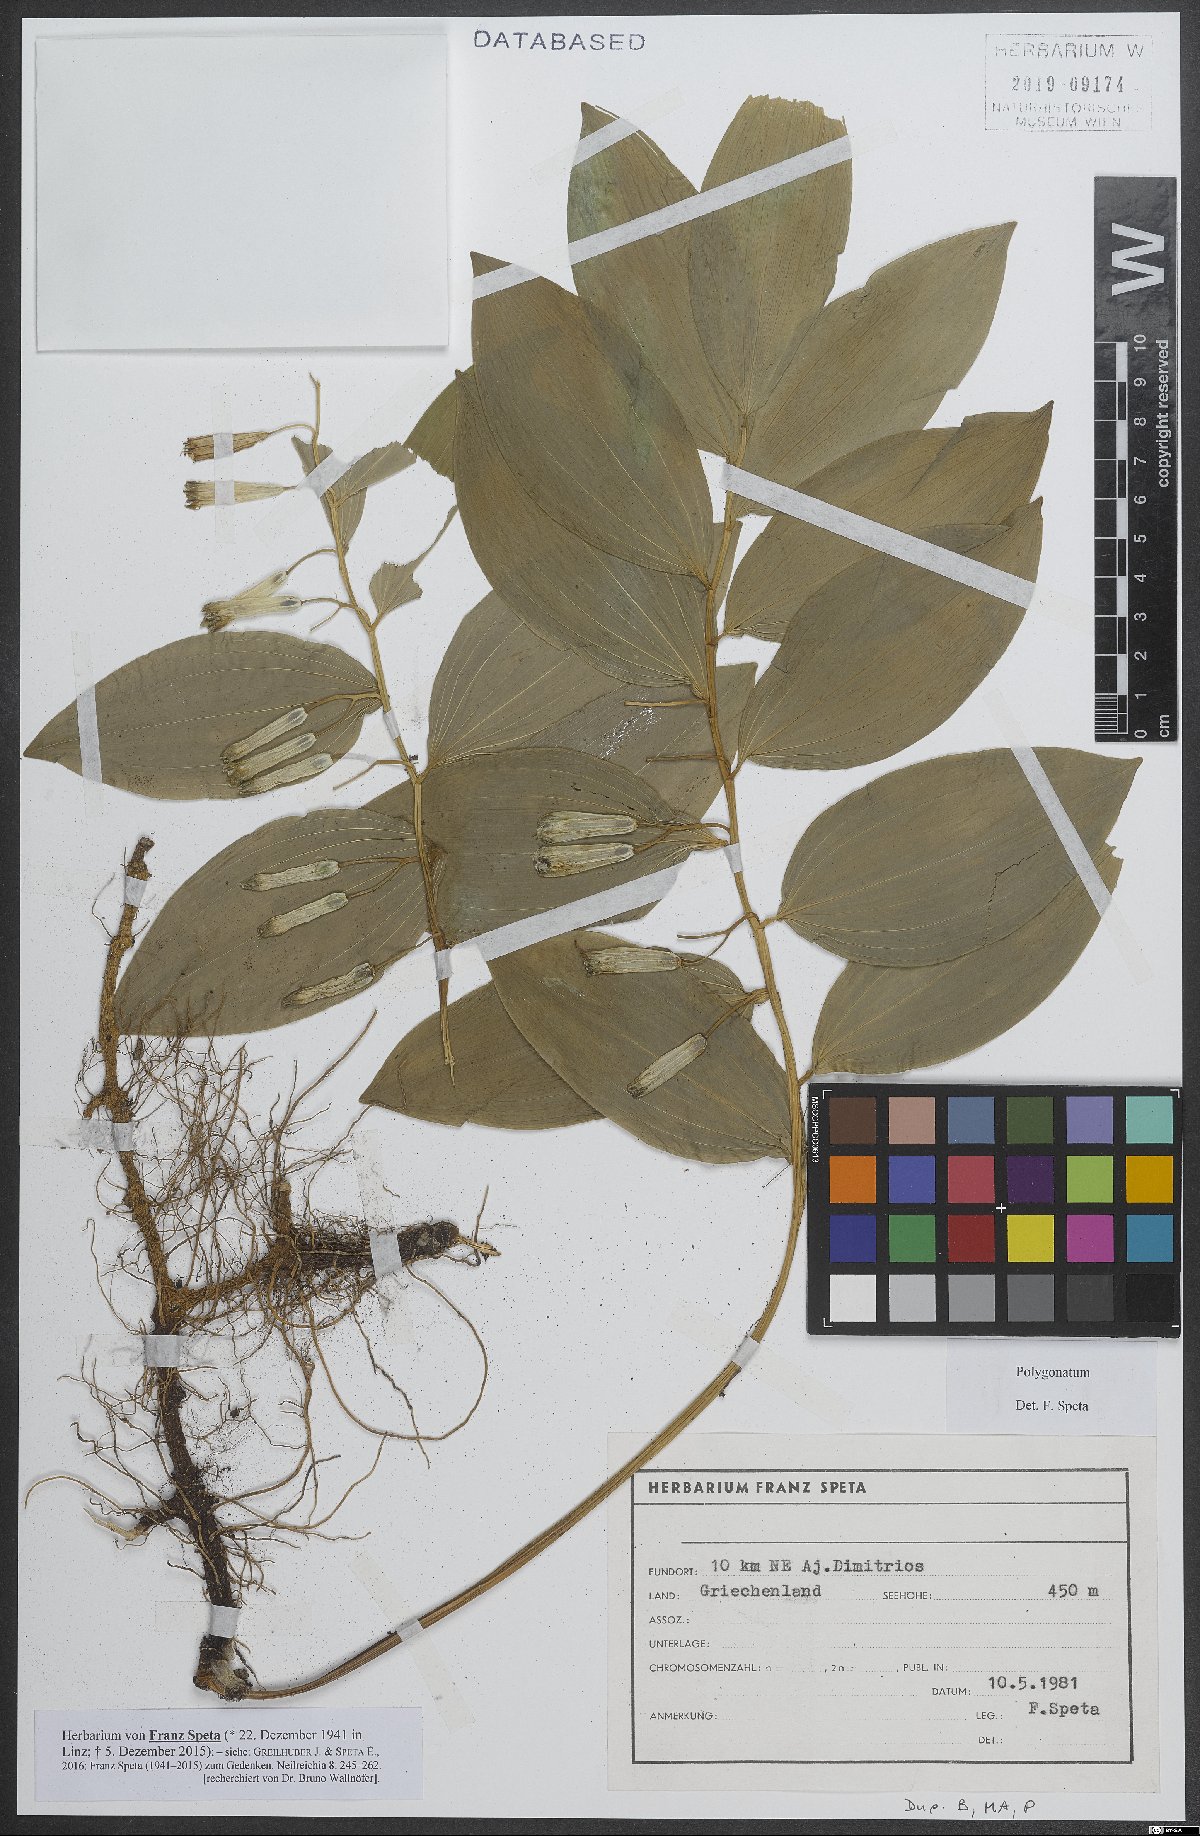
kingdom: Plantae
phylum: Tracheophyta
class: Liliopsida
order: Asparagales
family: Asparagaceae
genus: Polygonatum
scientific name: Polygonatum
